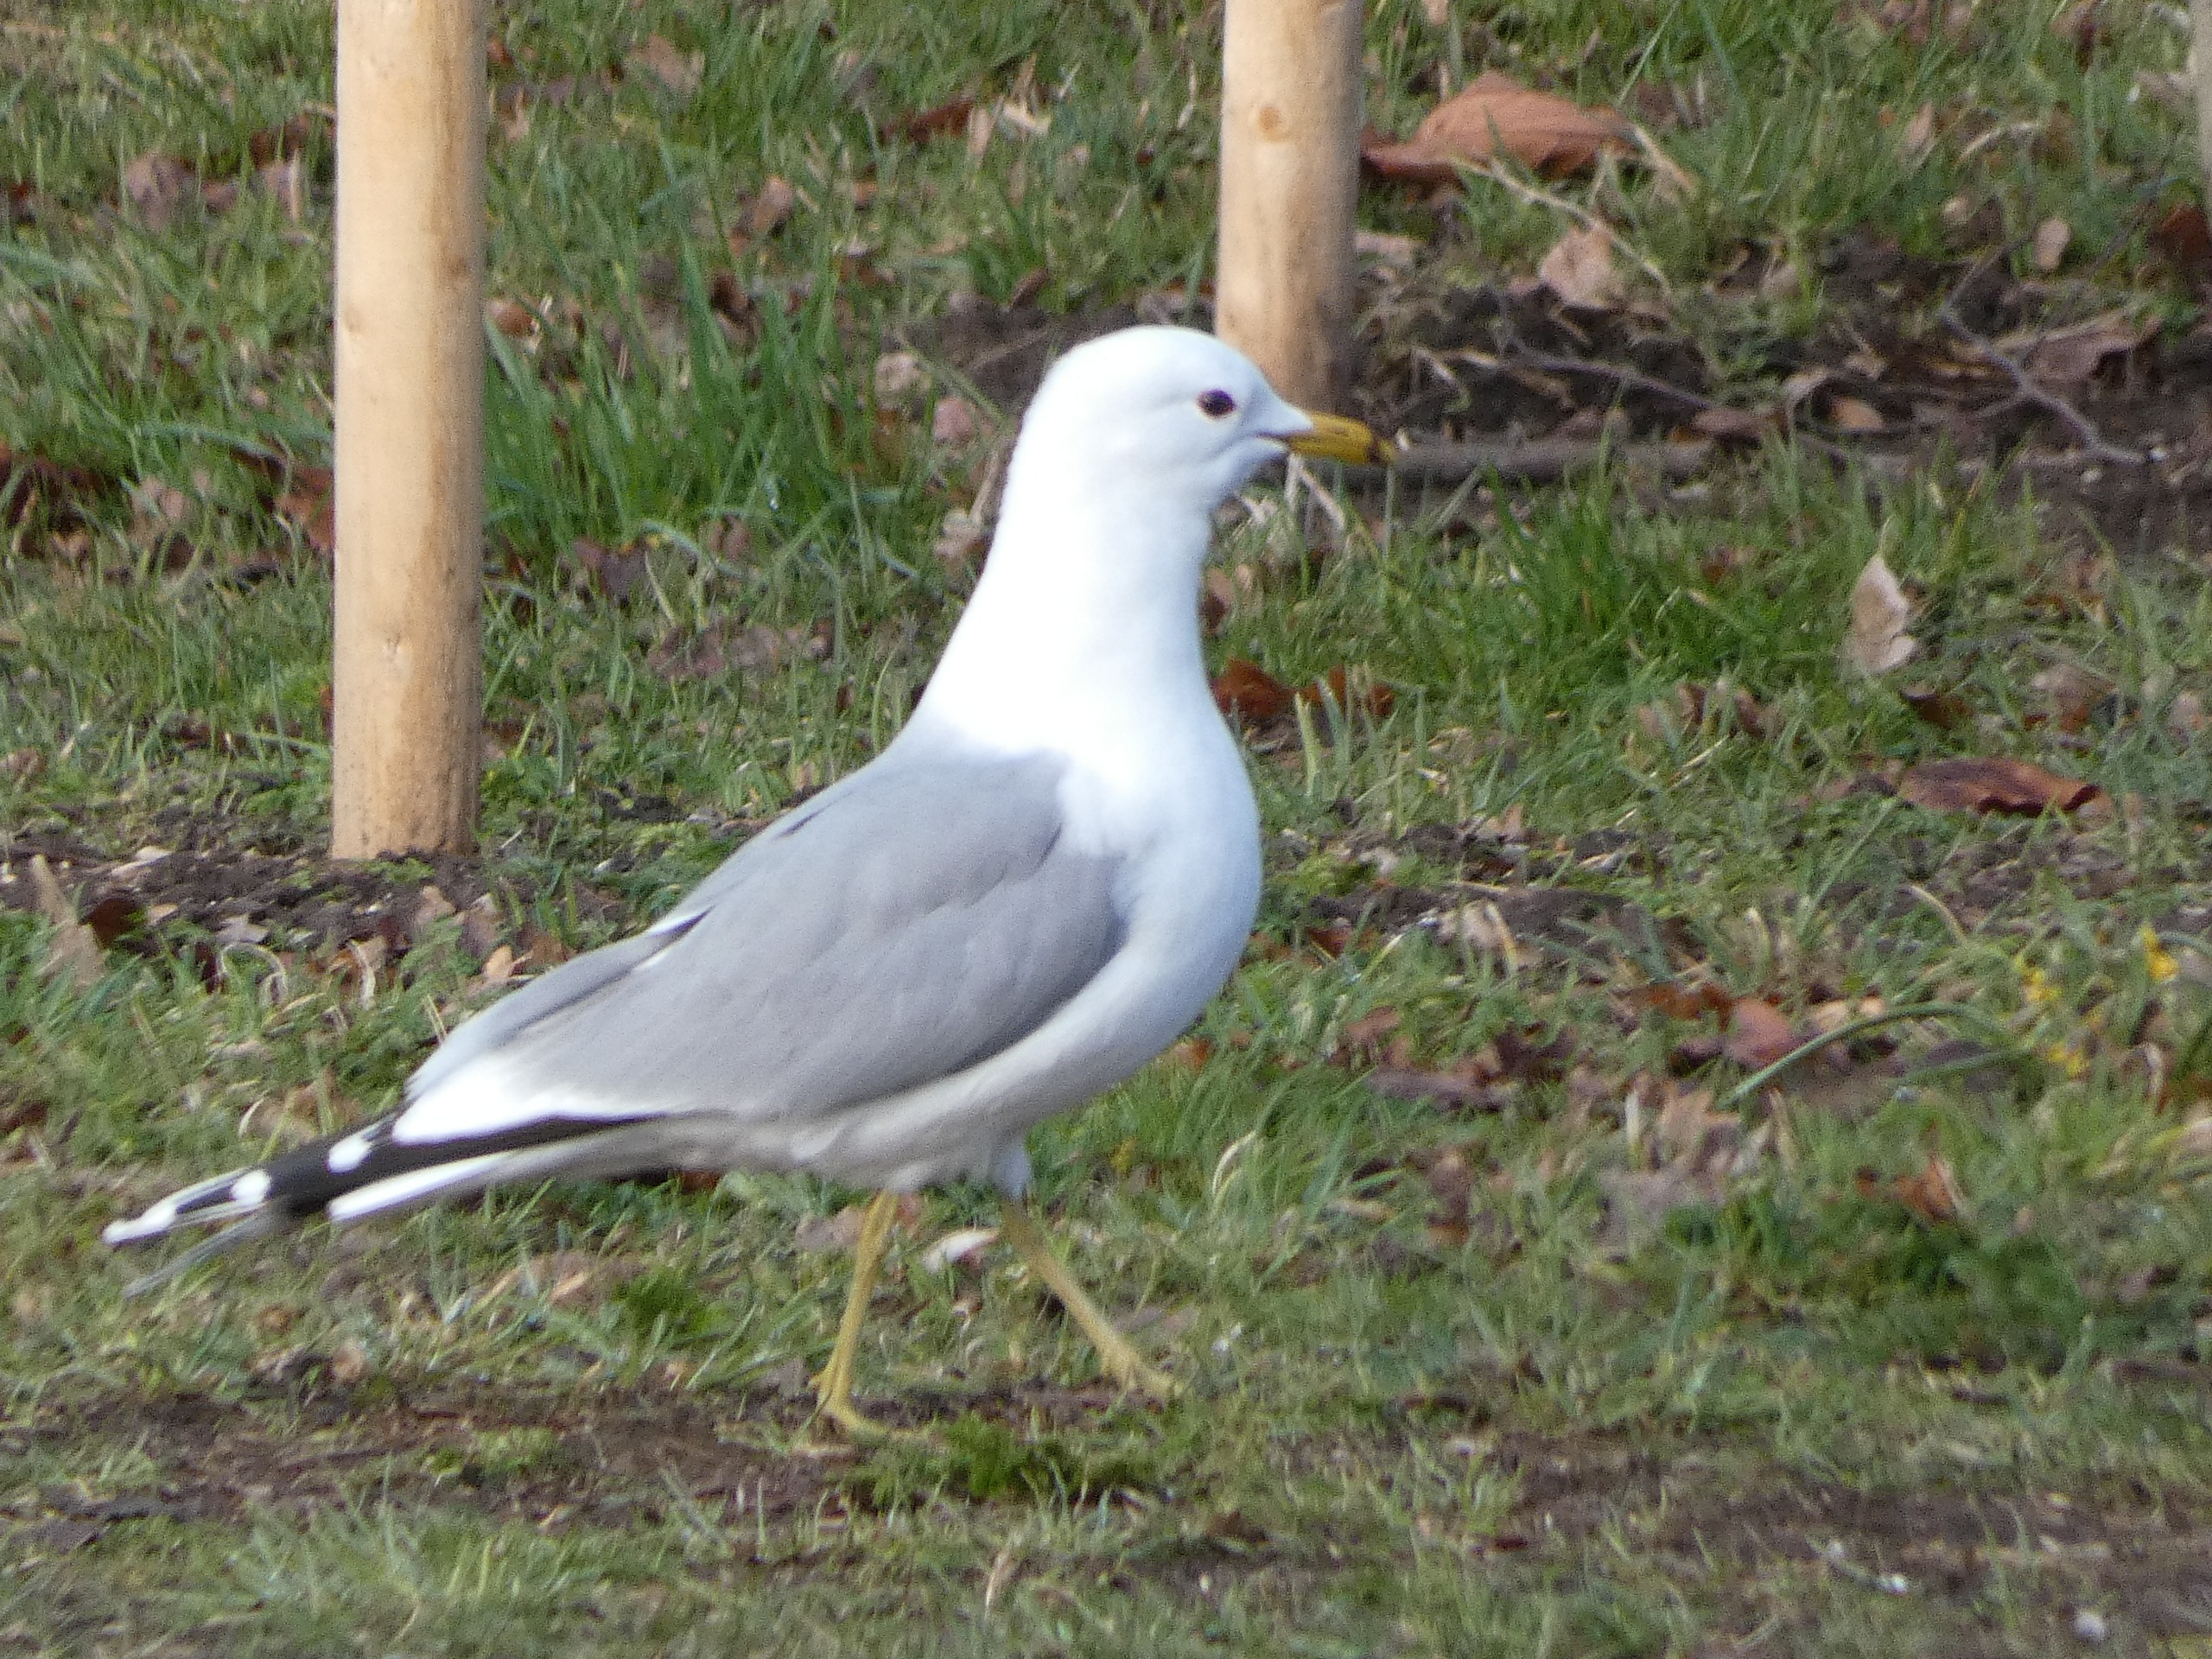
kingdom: Animalia
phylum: Chordata
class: Aves
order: Charadriiformes
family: Laridae
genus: Larus
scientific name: Larus canus
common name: Stormmåge
